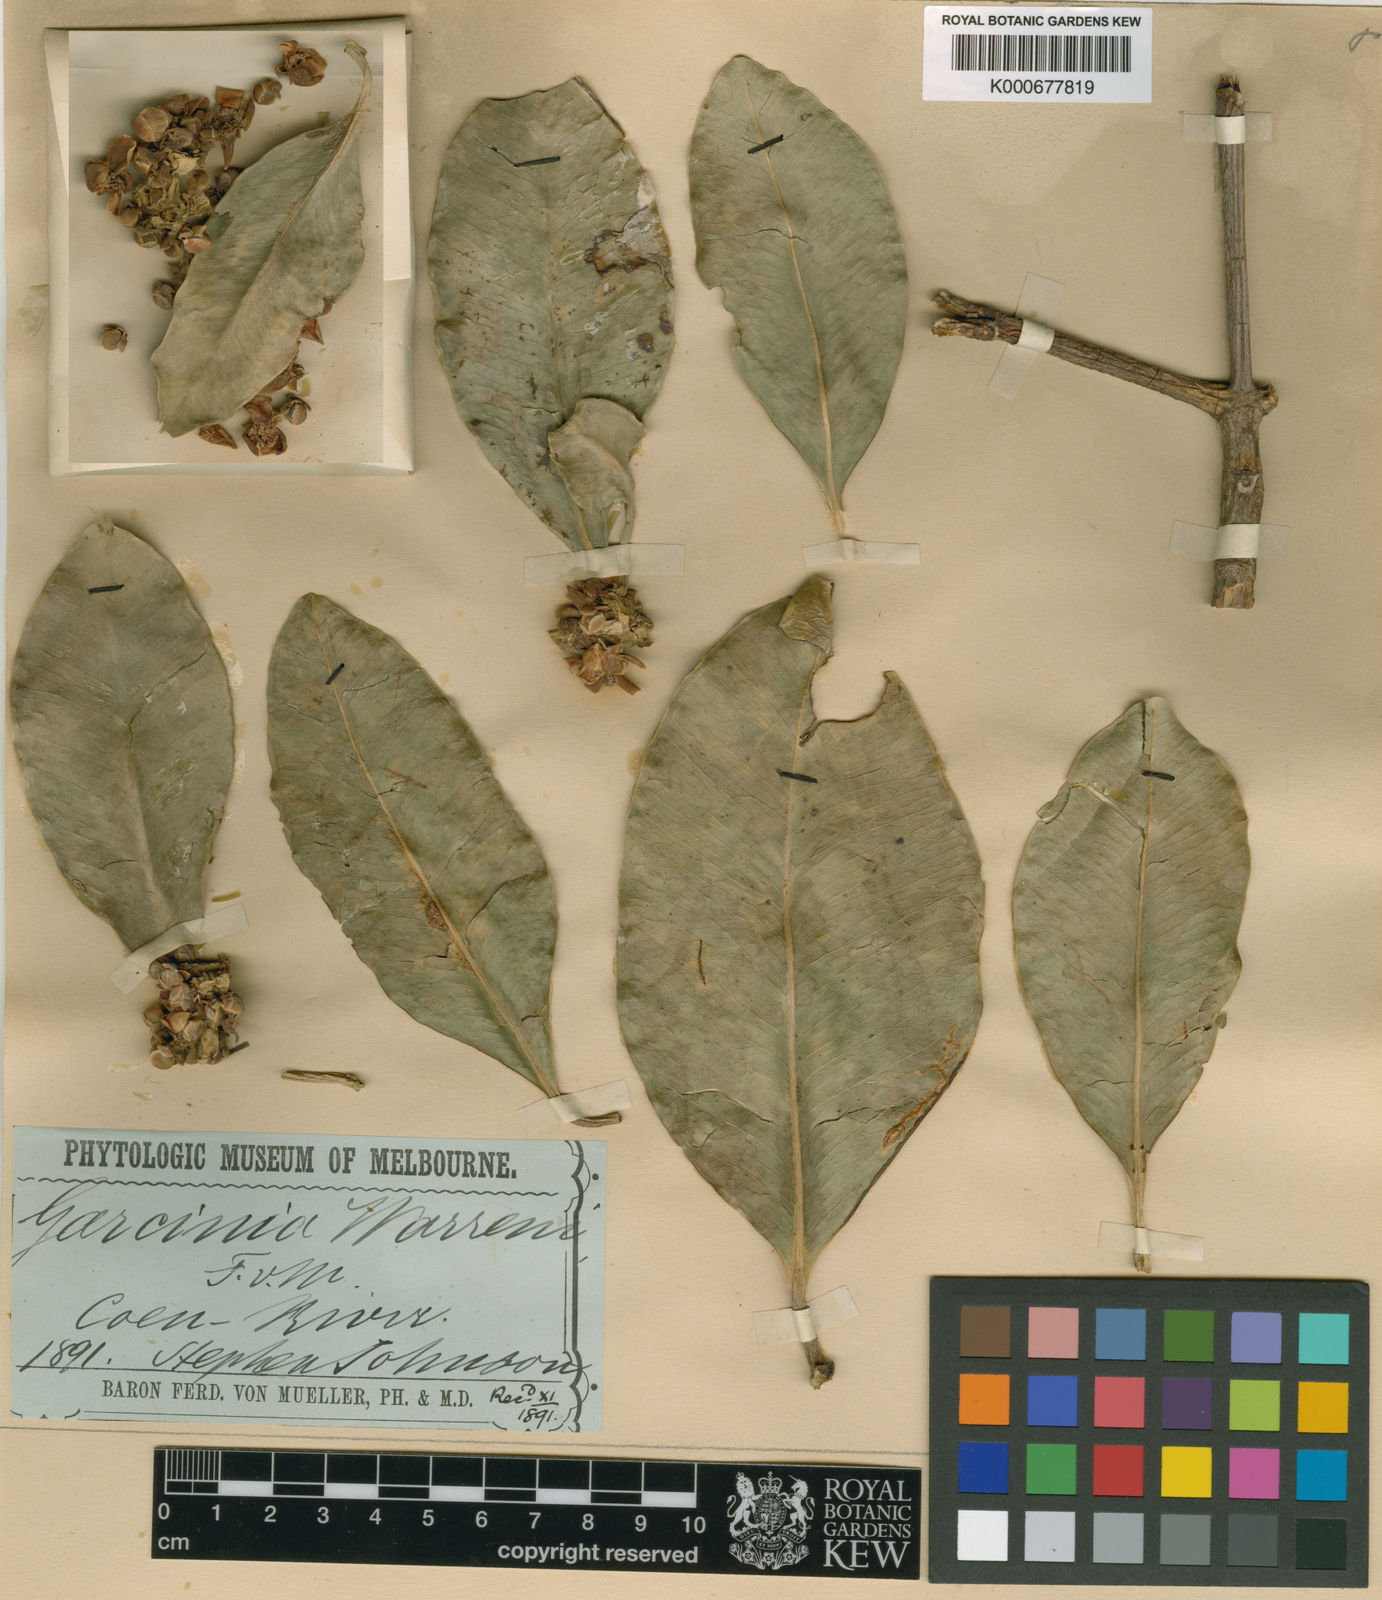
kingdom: Plantae
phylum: Tracheophyta
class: Magnoliopsida
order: Malpighiales
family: Clusiaceae
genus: Garcinia
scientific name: Garcinia warrenii
